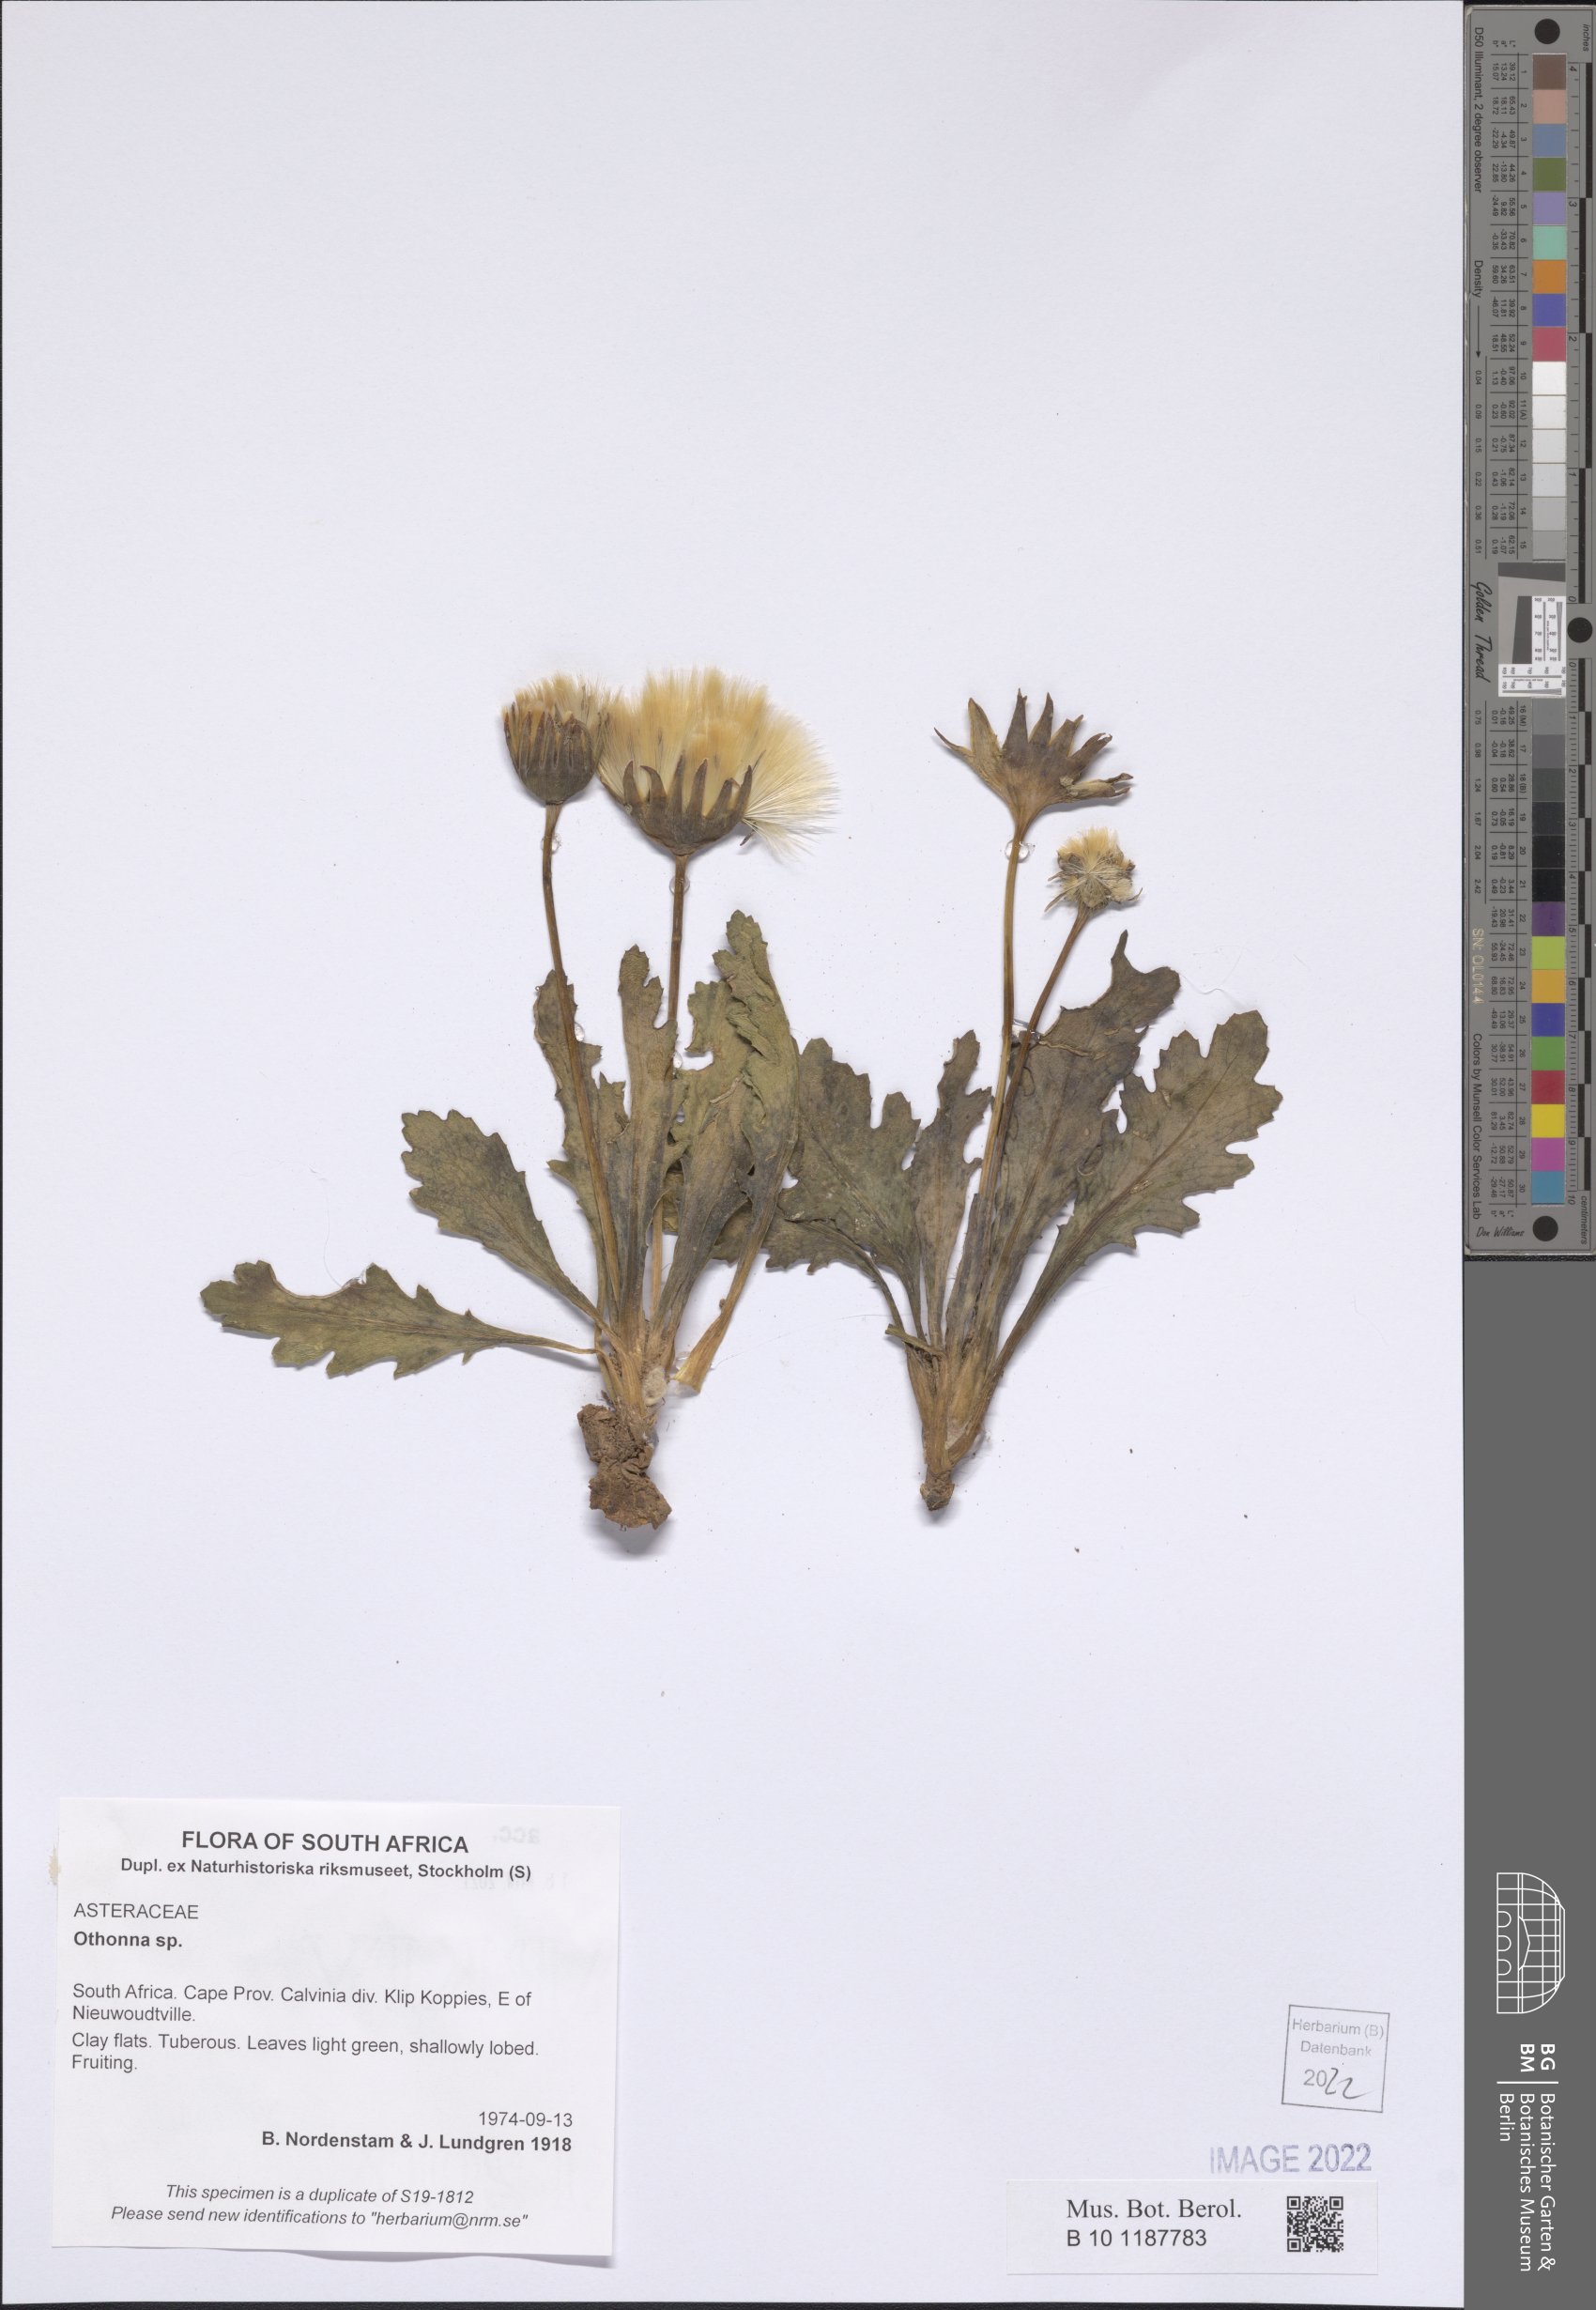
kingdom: Plantae
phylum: Tracheophyta
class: Magnoliopsida
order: Asterales
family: Asteraceae
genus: Othonna
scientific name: Othonna
